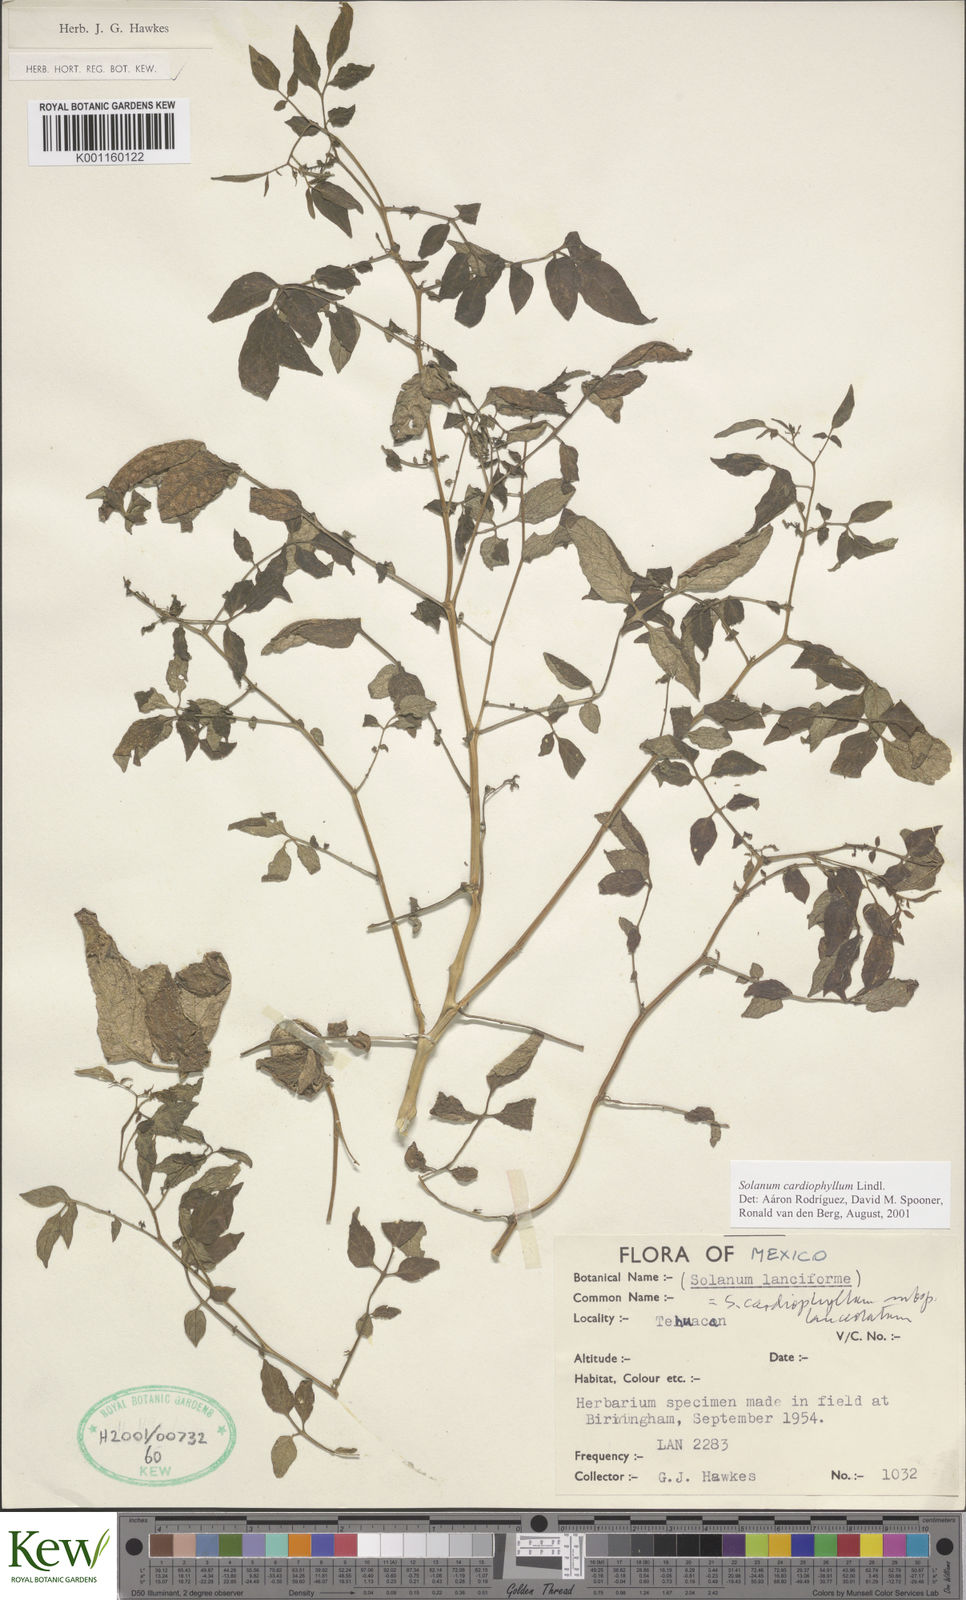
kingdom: Plantae
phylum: Tracheophyta
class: Magnoliopsida
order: Solanales
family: Solanaceae
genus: Solanum
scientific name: Solanum cardiophyllum
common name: Heartleaf horsenettle
